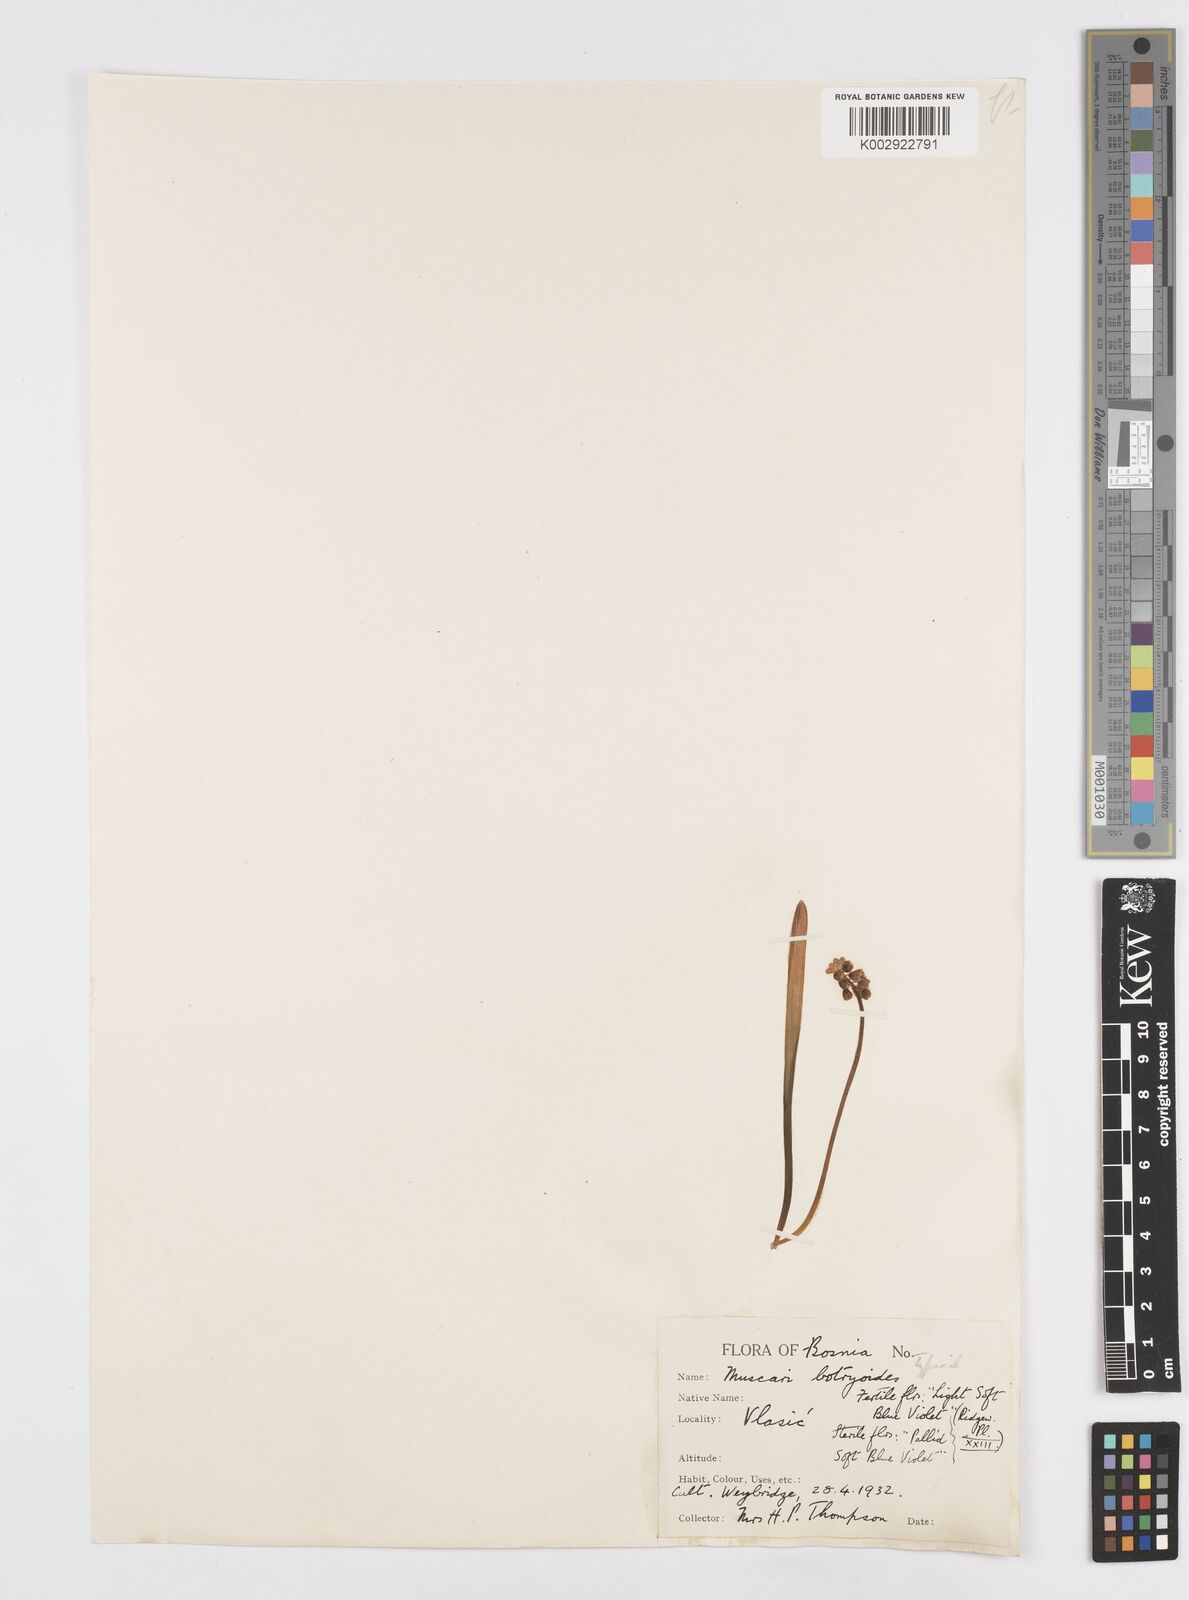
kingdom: Plantae
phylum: Tracheophyta
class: Liliopsida
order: Asparagales
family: Asparagaceae
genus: Muscari
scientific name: Muscari botryoides
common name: Compact grape-hyacinth
